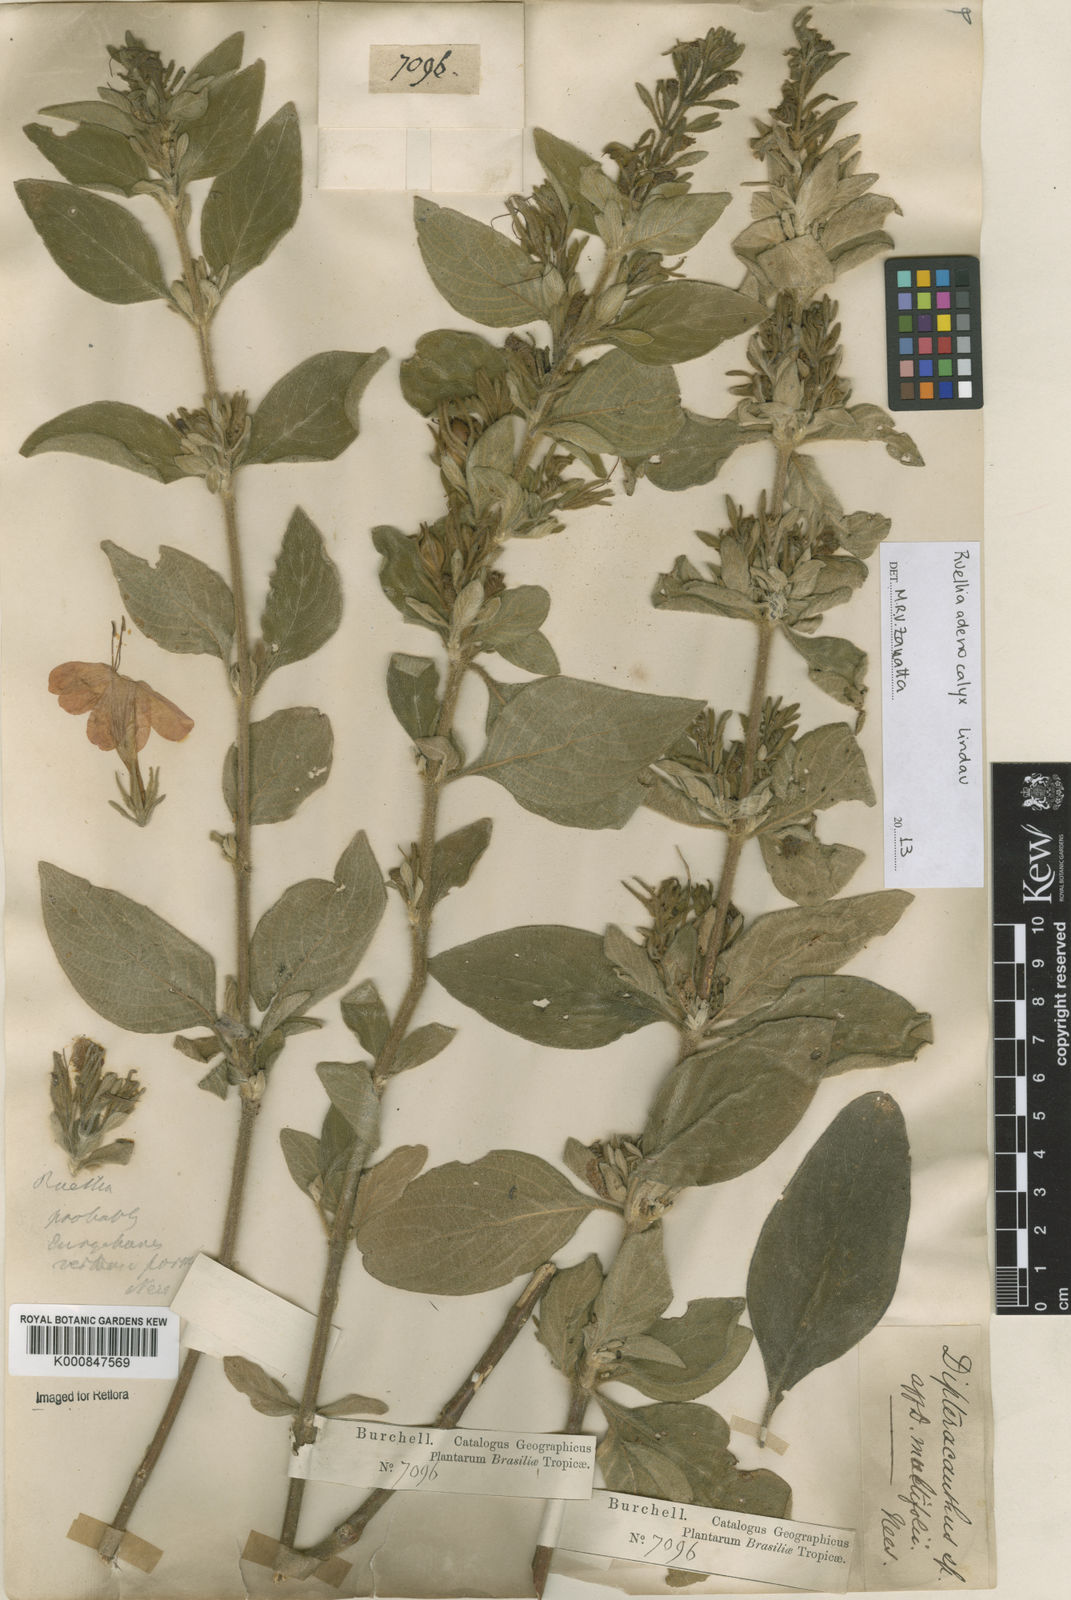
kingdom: Plantae
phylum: Tracheophyta
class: Magnoliopsida
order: Lamiales
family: Acanthaceae
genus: Ruellia
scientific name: Ruellia adenocalyx
